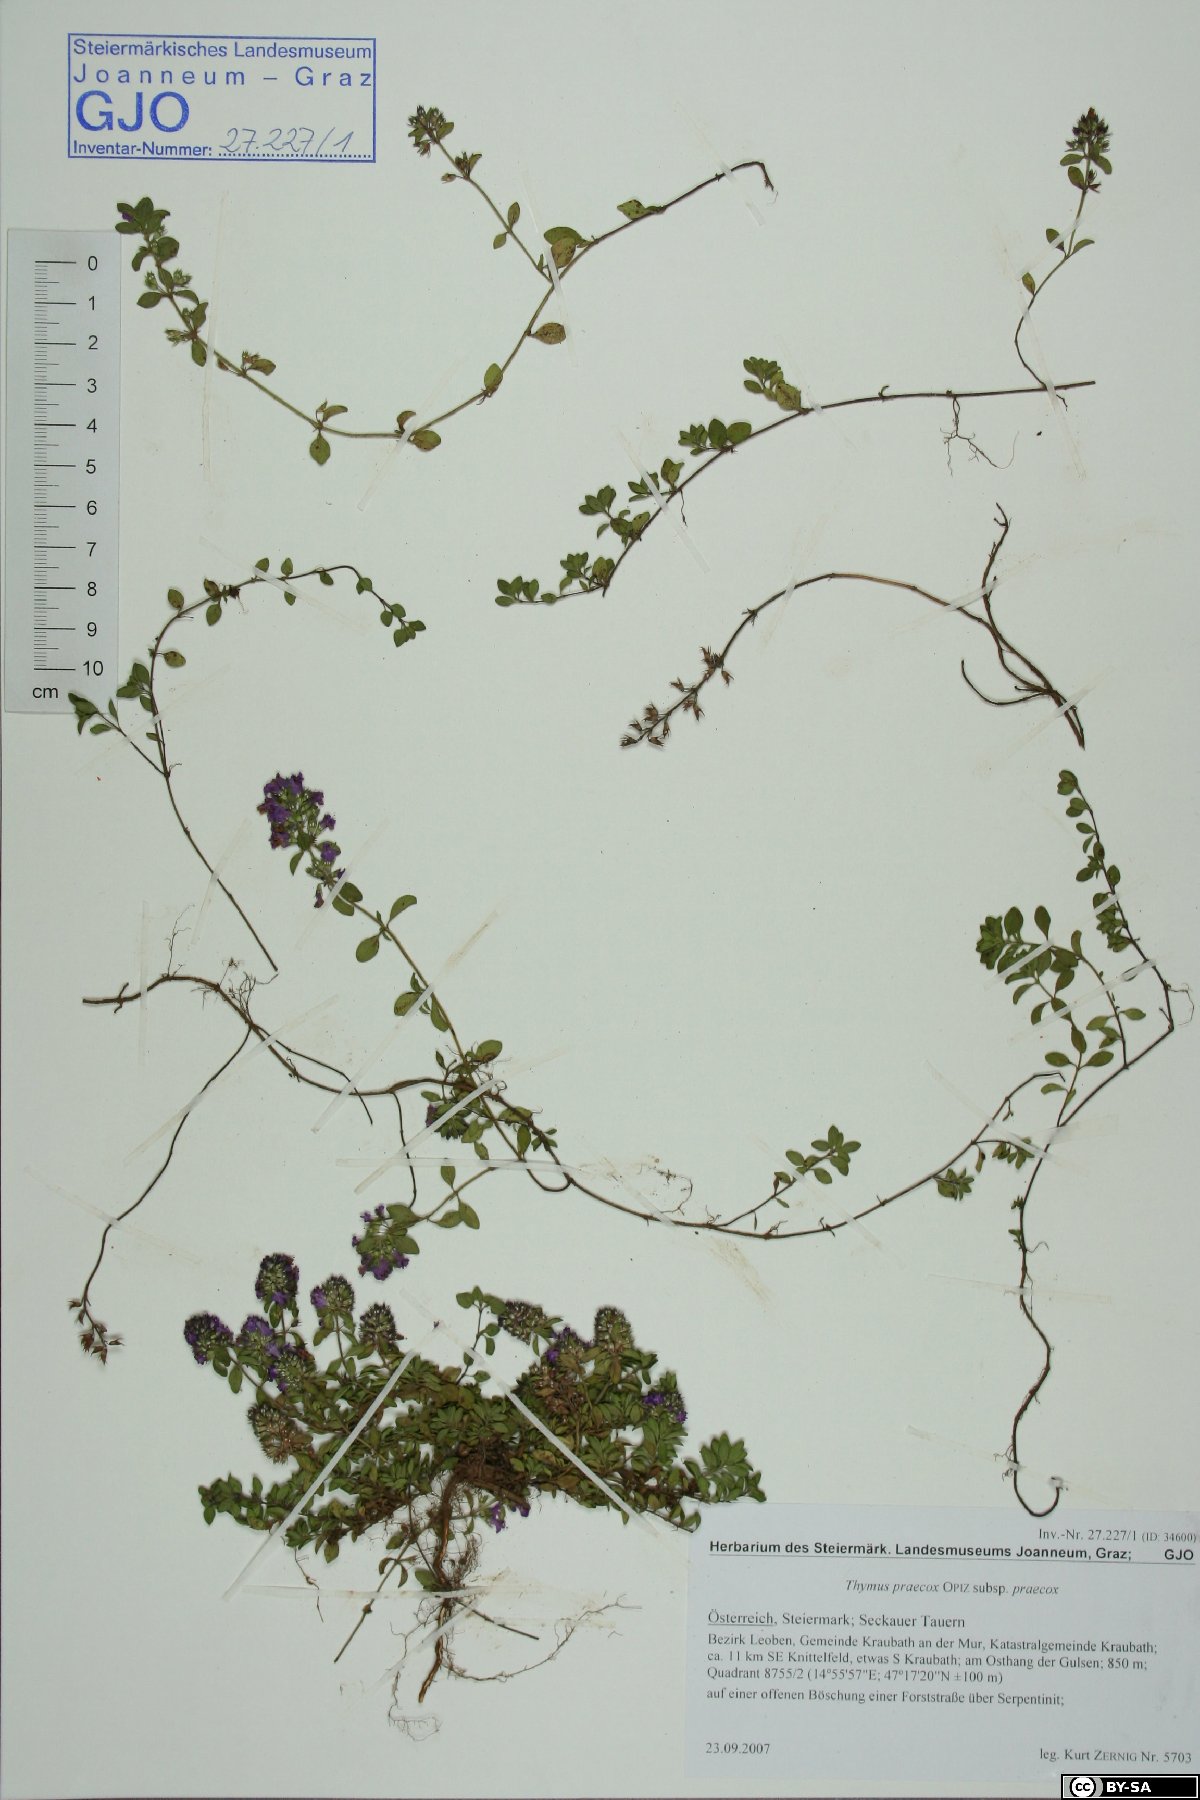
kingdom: Plantae
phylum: Tracheophyta
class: Magnoliopsida
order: Lamiales
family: Lamiaceae
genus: Thymus
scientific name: Thymus praecox
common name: Wild thyme
